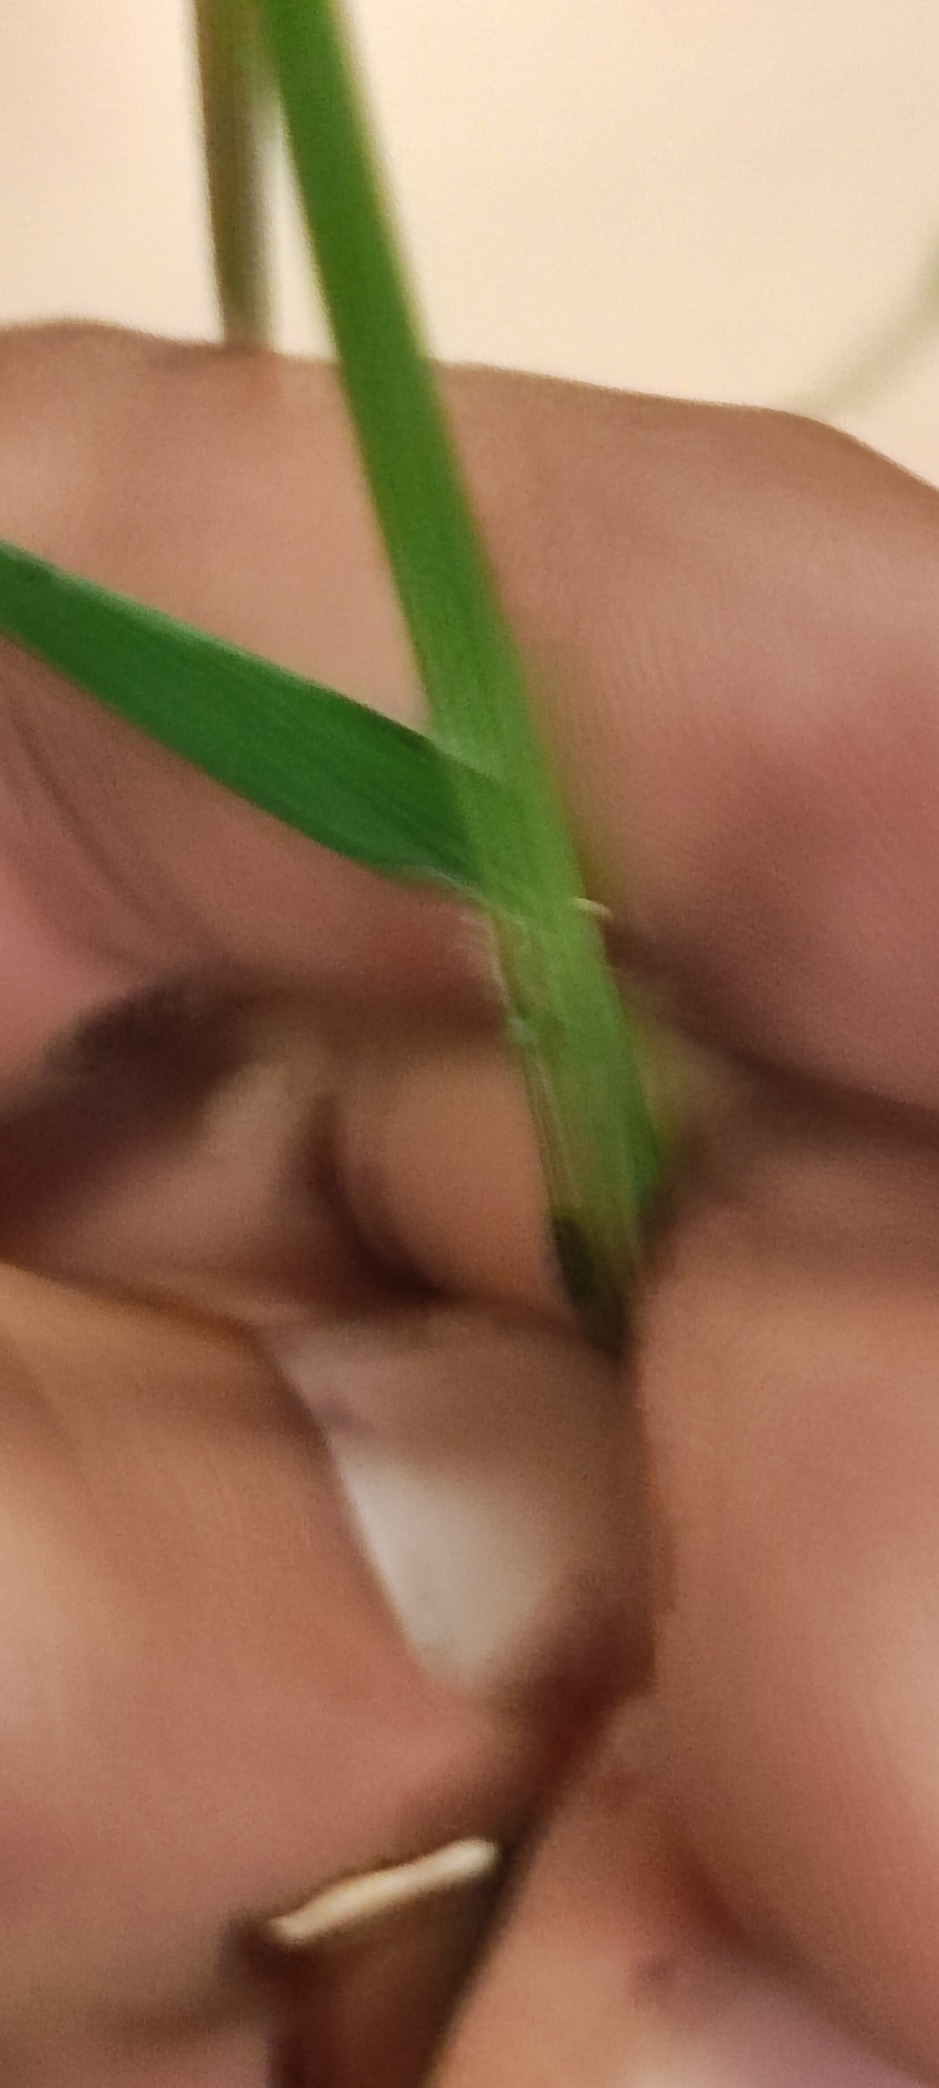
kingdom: Plantae
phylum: Tracheophyta
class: Liliopsida
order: Poales
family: Poaceae
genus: Hordelymus
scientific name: Hordelymus europaeus
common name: Skovbyg
